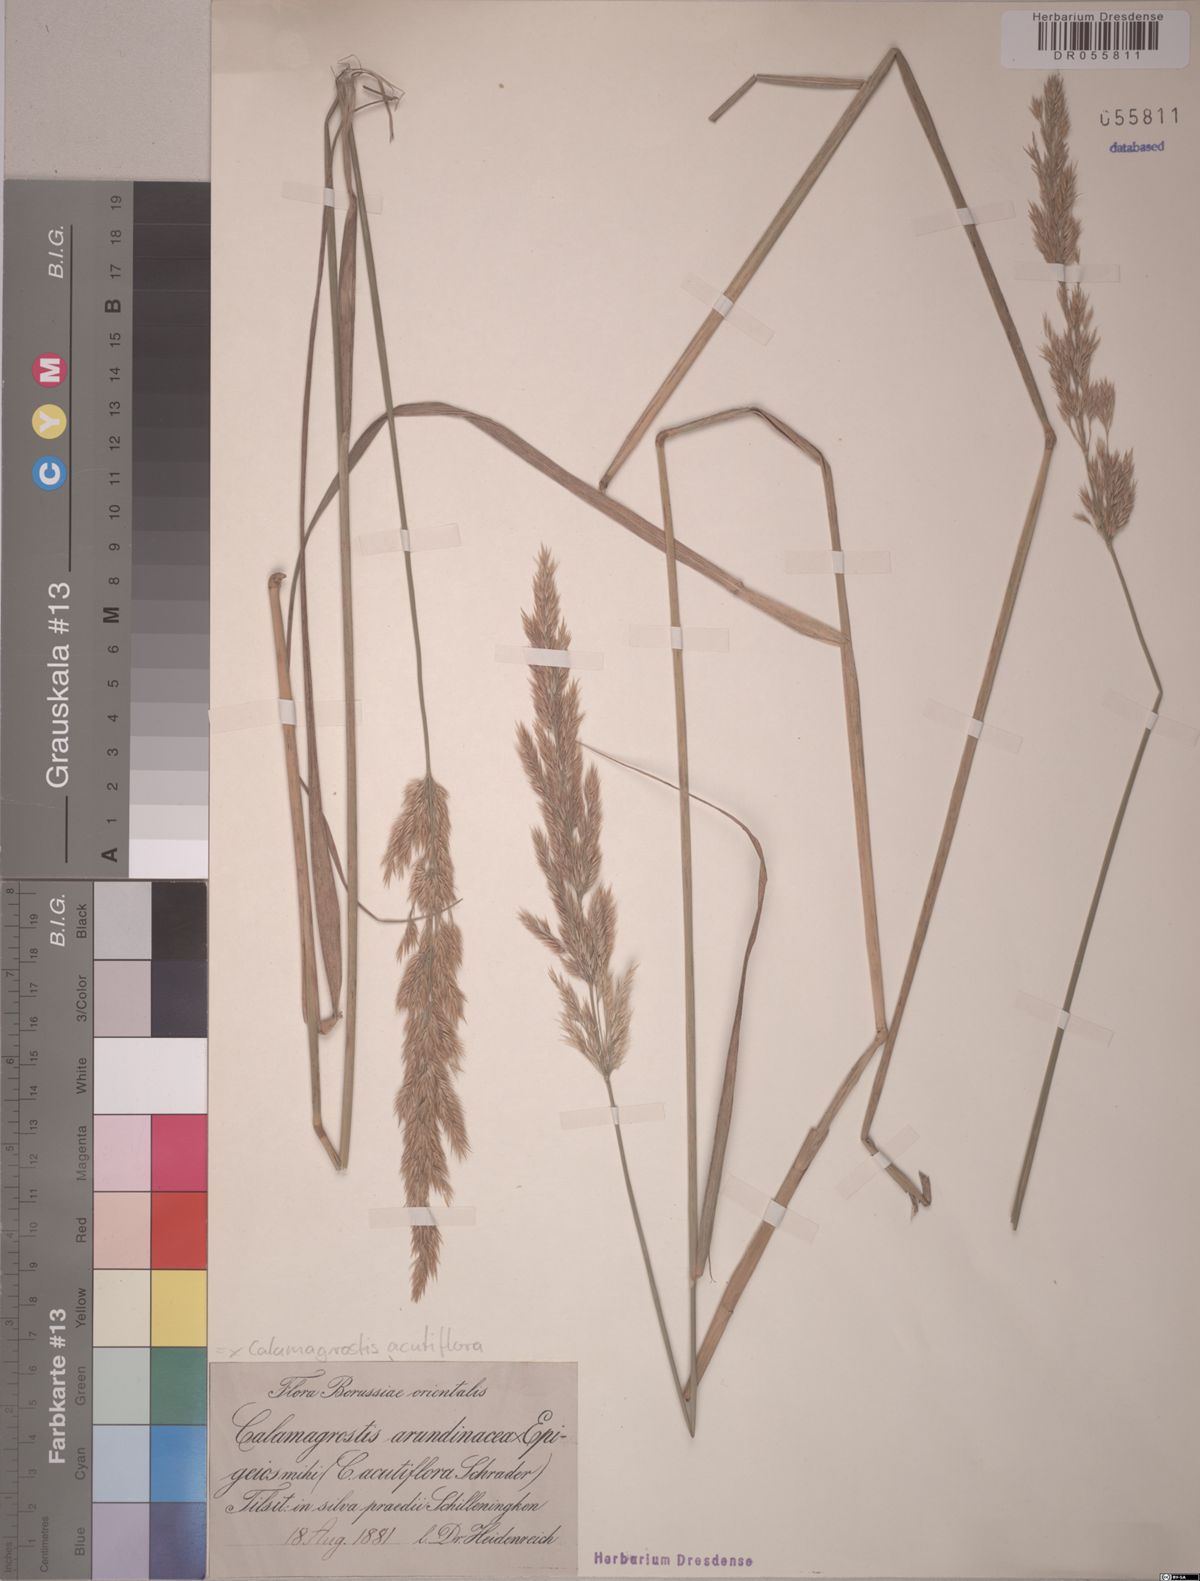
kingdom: Plantae
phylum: Tracheophyta
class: Liliopsida
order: Poales
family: Poaceae
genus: Calamagrostis
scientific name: Calamagrostis acutiflora
